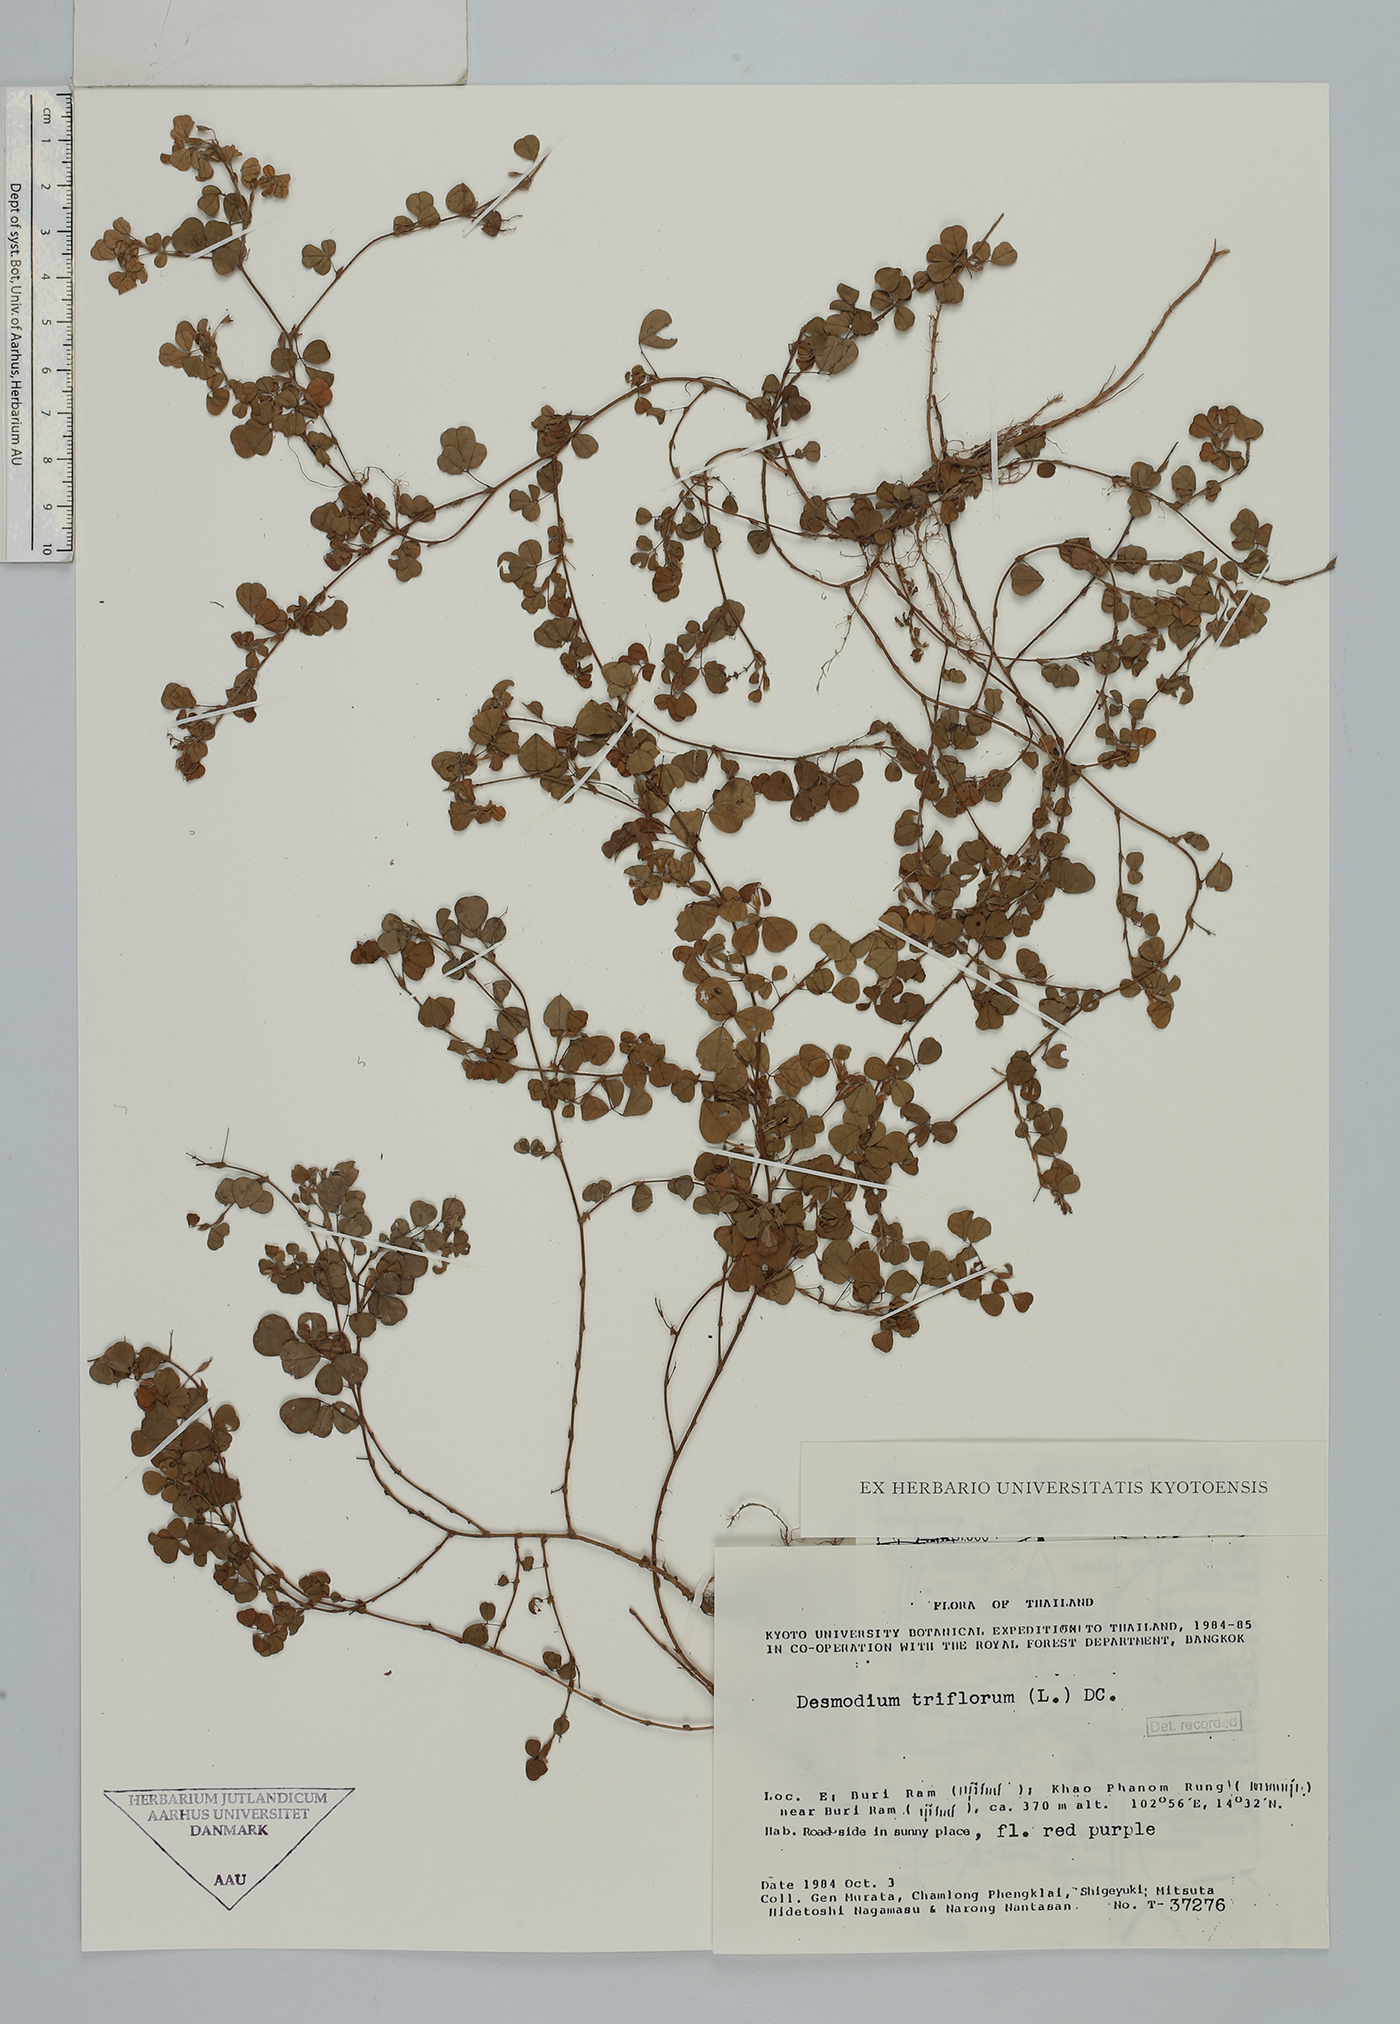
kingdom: Plantae
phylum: Tracheophyta
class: Magnoliopsida
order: Fabales
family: Fabaceae
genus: Grona
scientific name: Grona triflora
